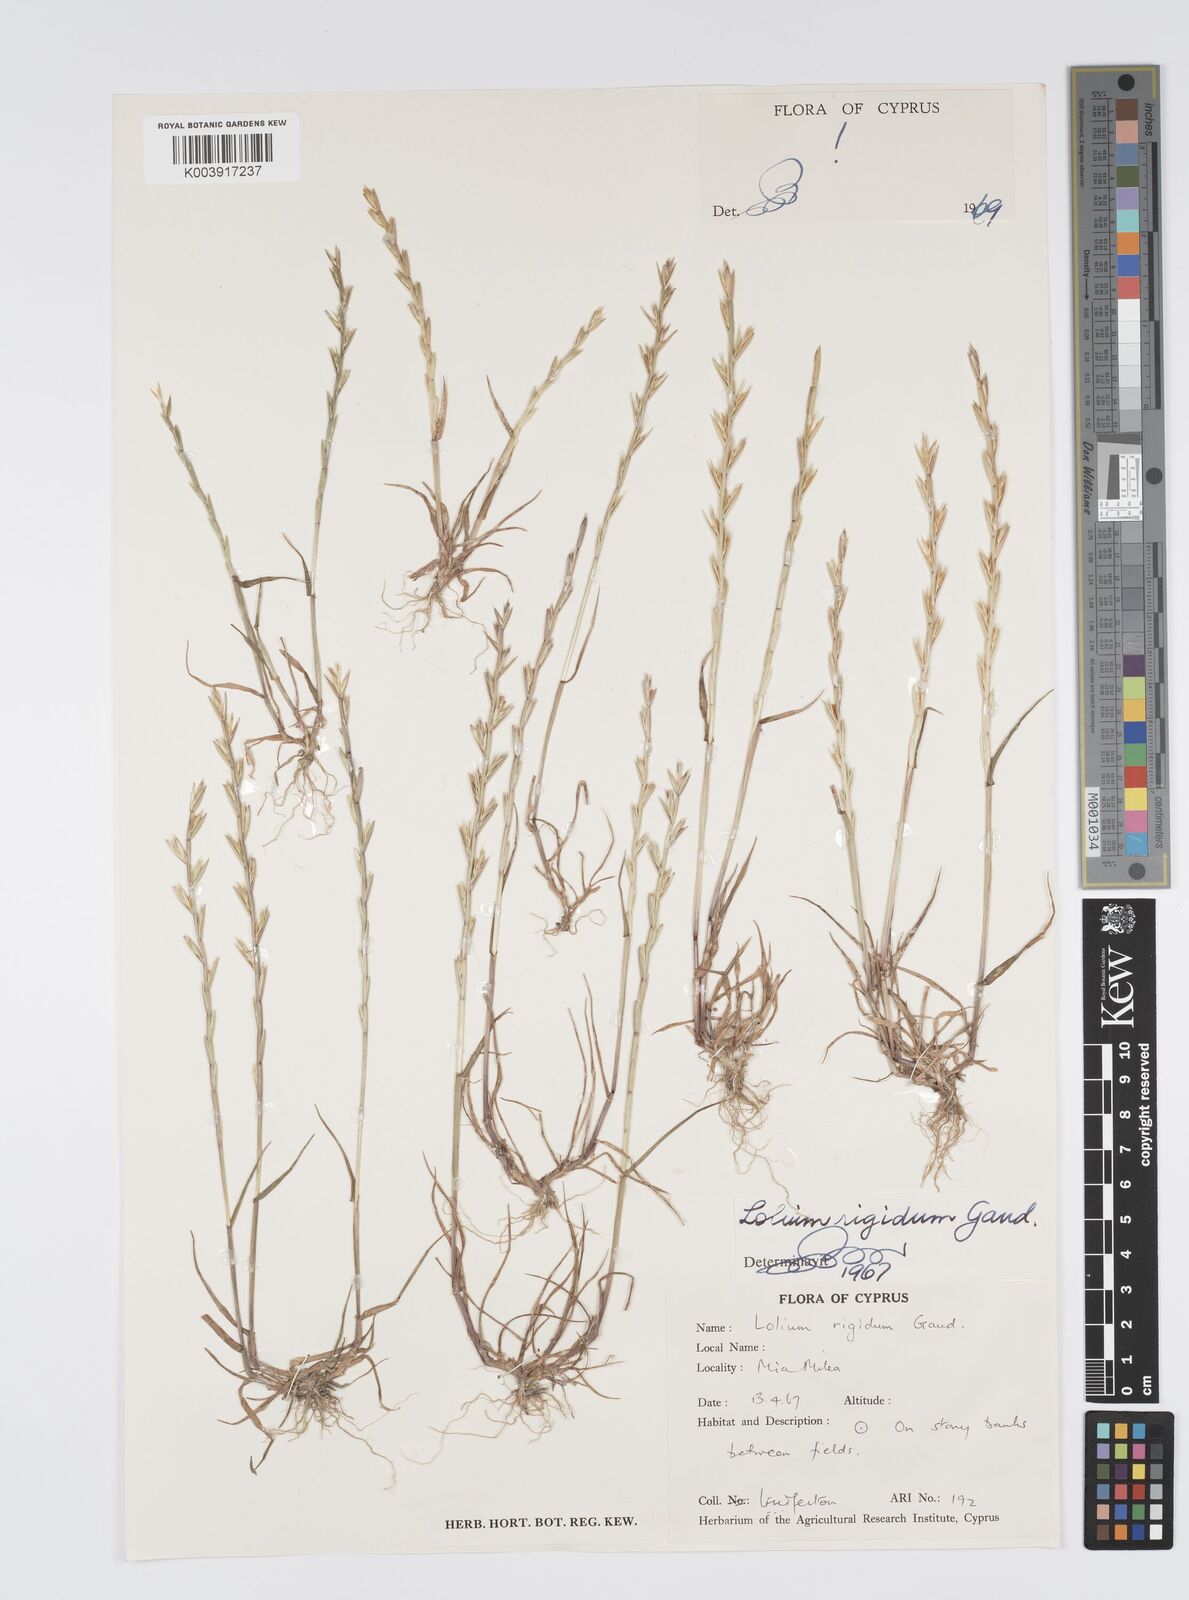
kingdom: Plantae
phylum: Tracheophyta
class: Liliopsida
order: Poales
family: Poaceae
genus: Lolium
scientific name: Lolium rigidum
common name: Wimmera ryegrass
